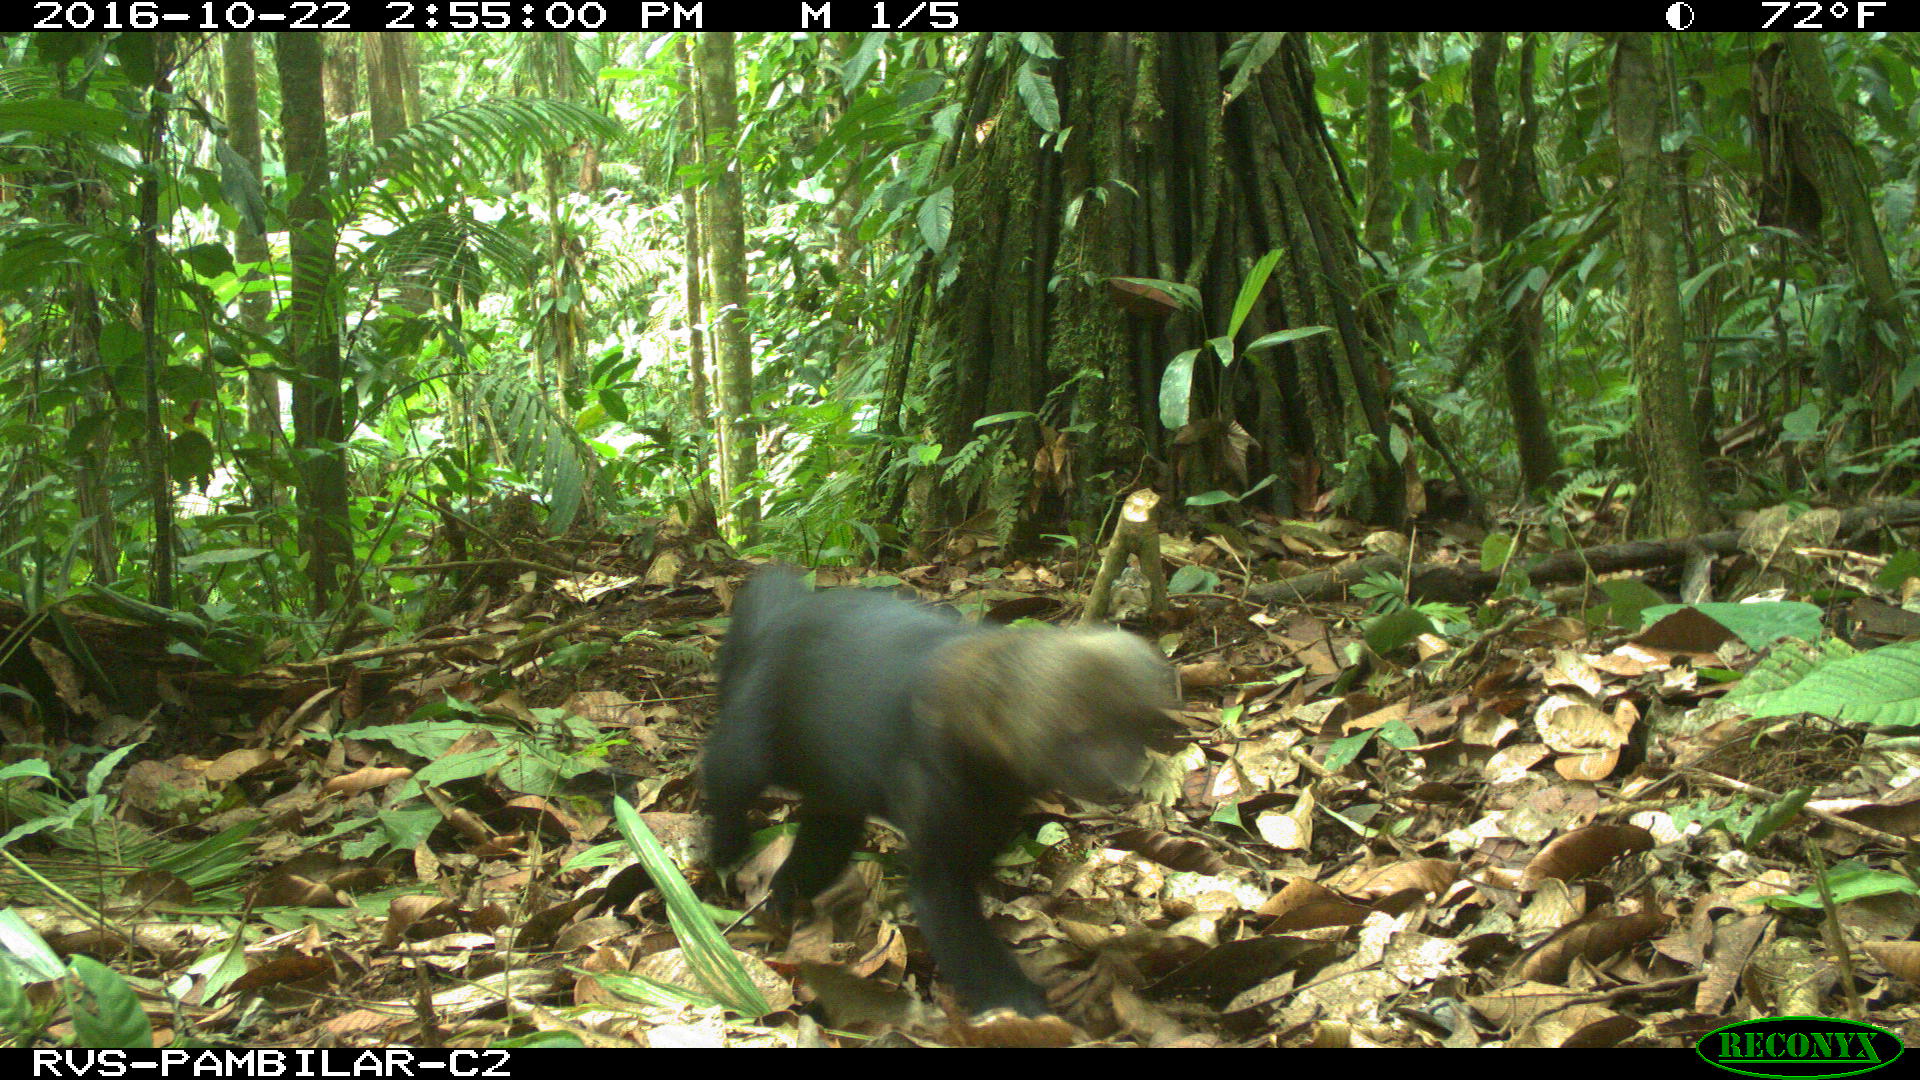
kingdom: Animalia
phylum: Chordata
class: Mammalia
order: Carnivora
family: Mustelidae
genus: Eira
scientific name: Eira barbara
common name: Tayra
